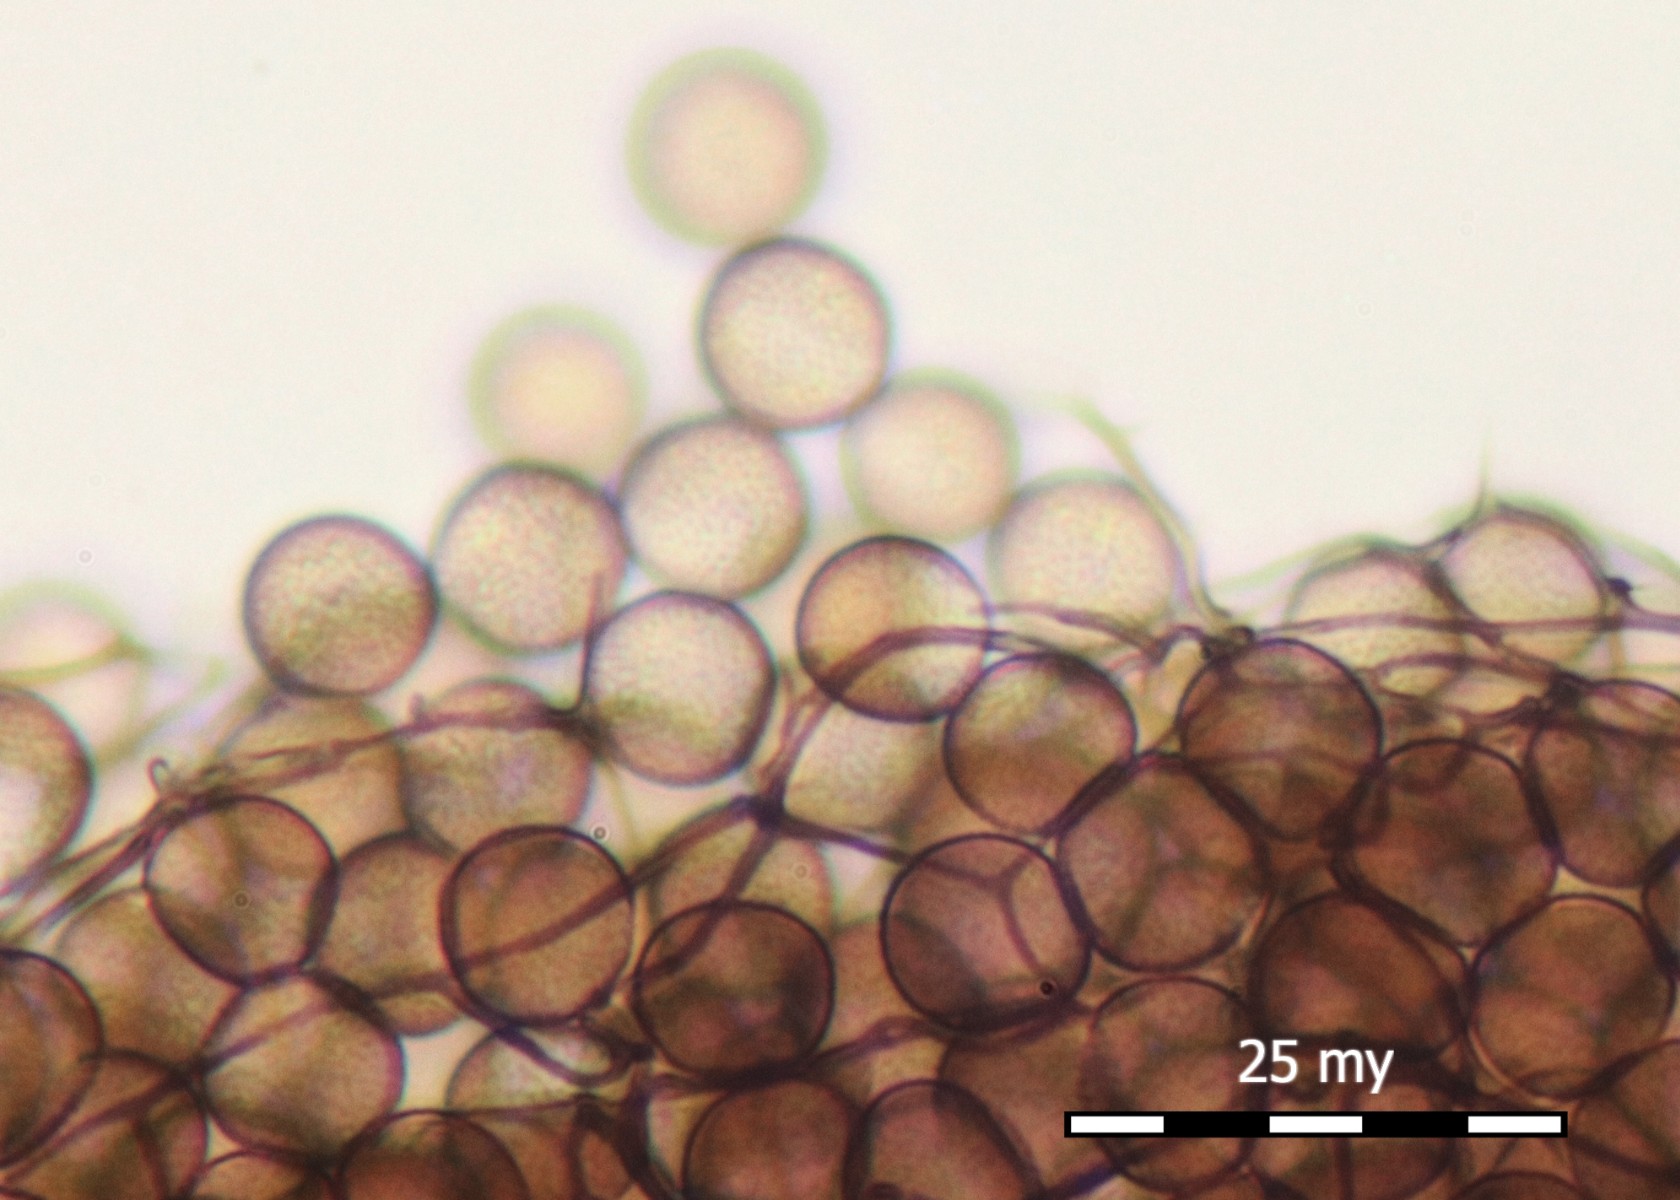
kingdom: Protozoa
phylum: Mycetozoa
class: Myxomycetes
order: Stemonitidales
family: Stemonitidaceae
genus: Comatricha
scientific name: Comatricha nigra
